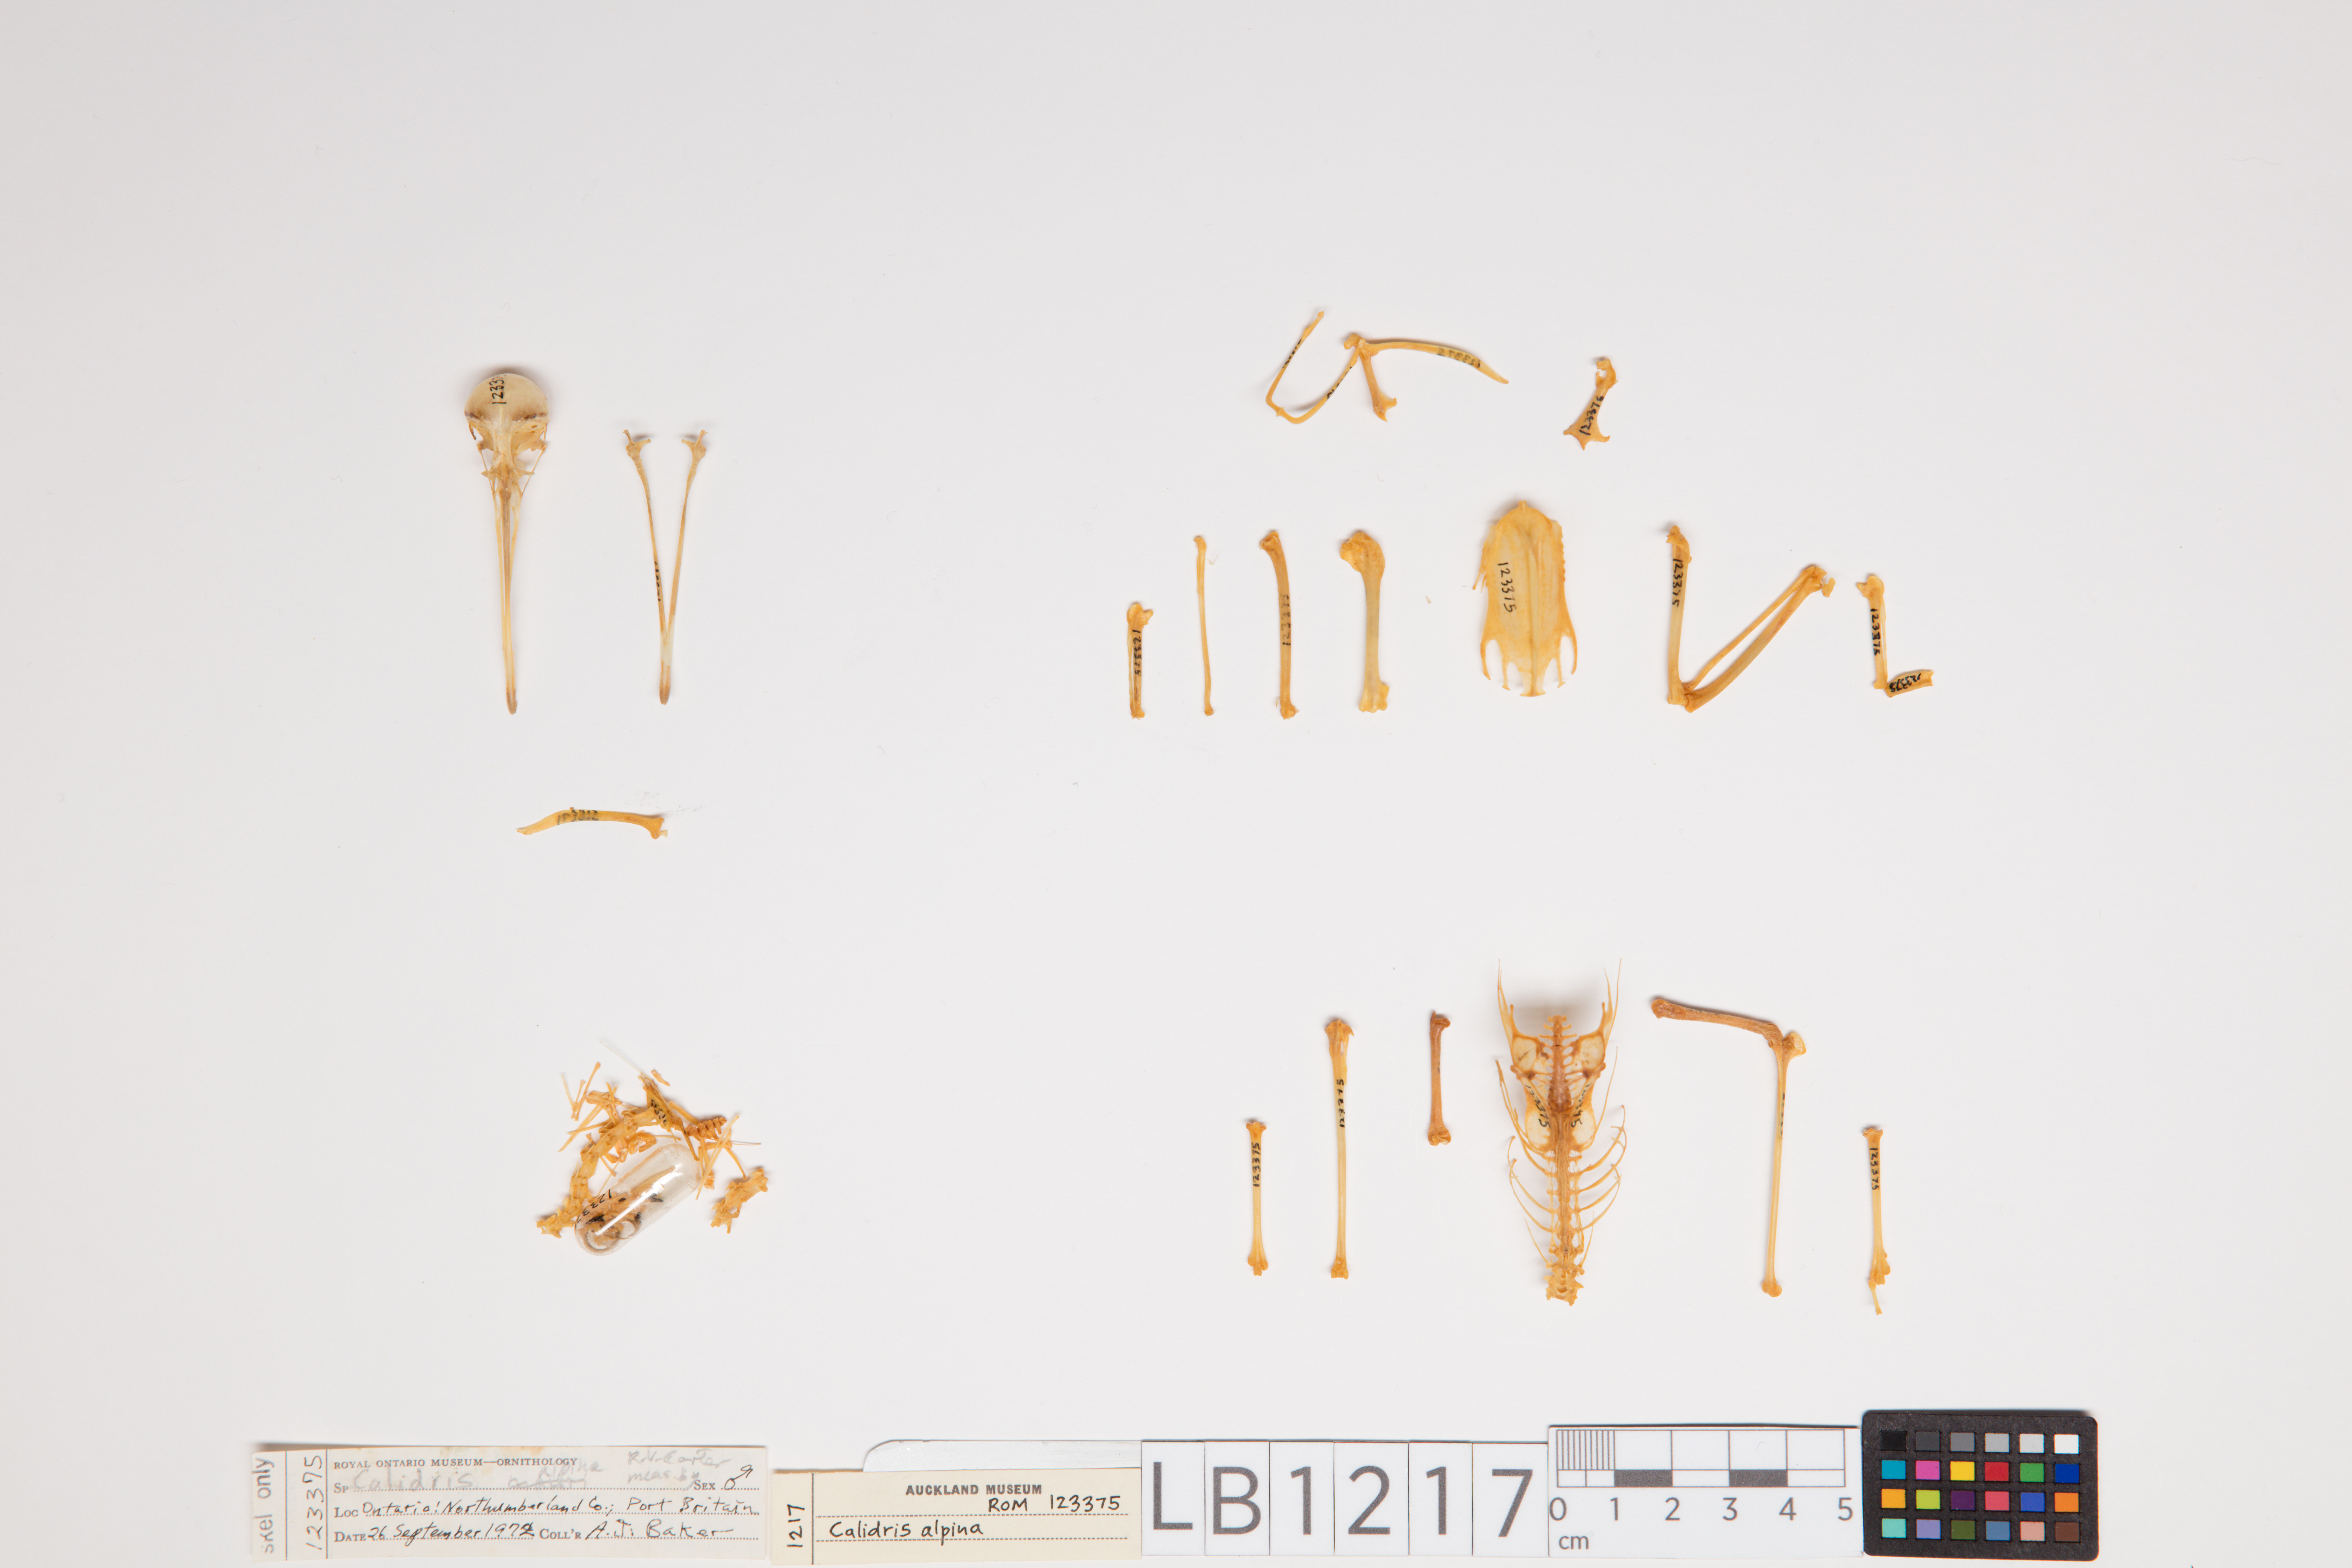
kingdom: Animalia
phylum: Chordata
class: Aves
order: Charadriiformes
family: Scolopacidae
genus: Calidris
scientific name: Calidris alpina
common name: Dunlin
